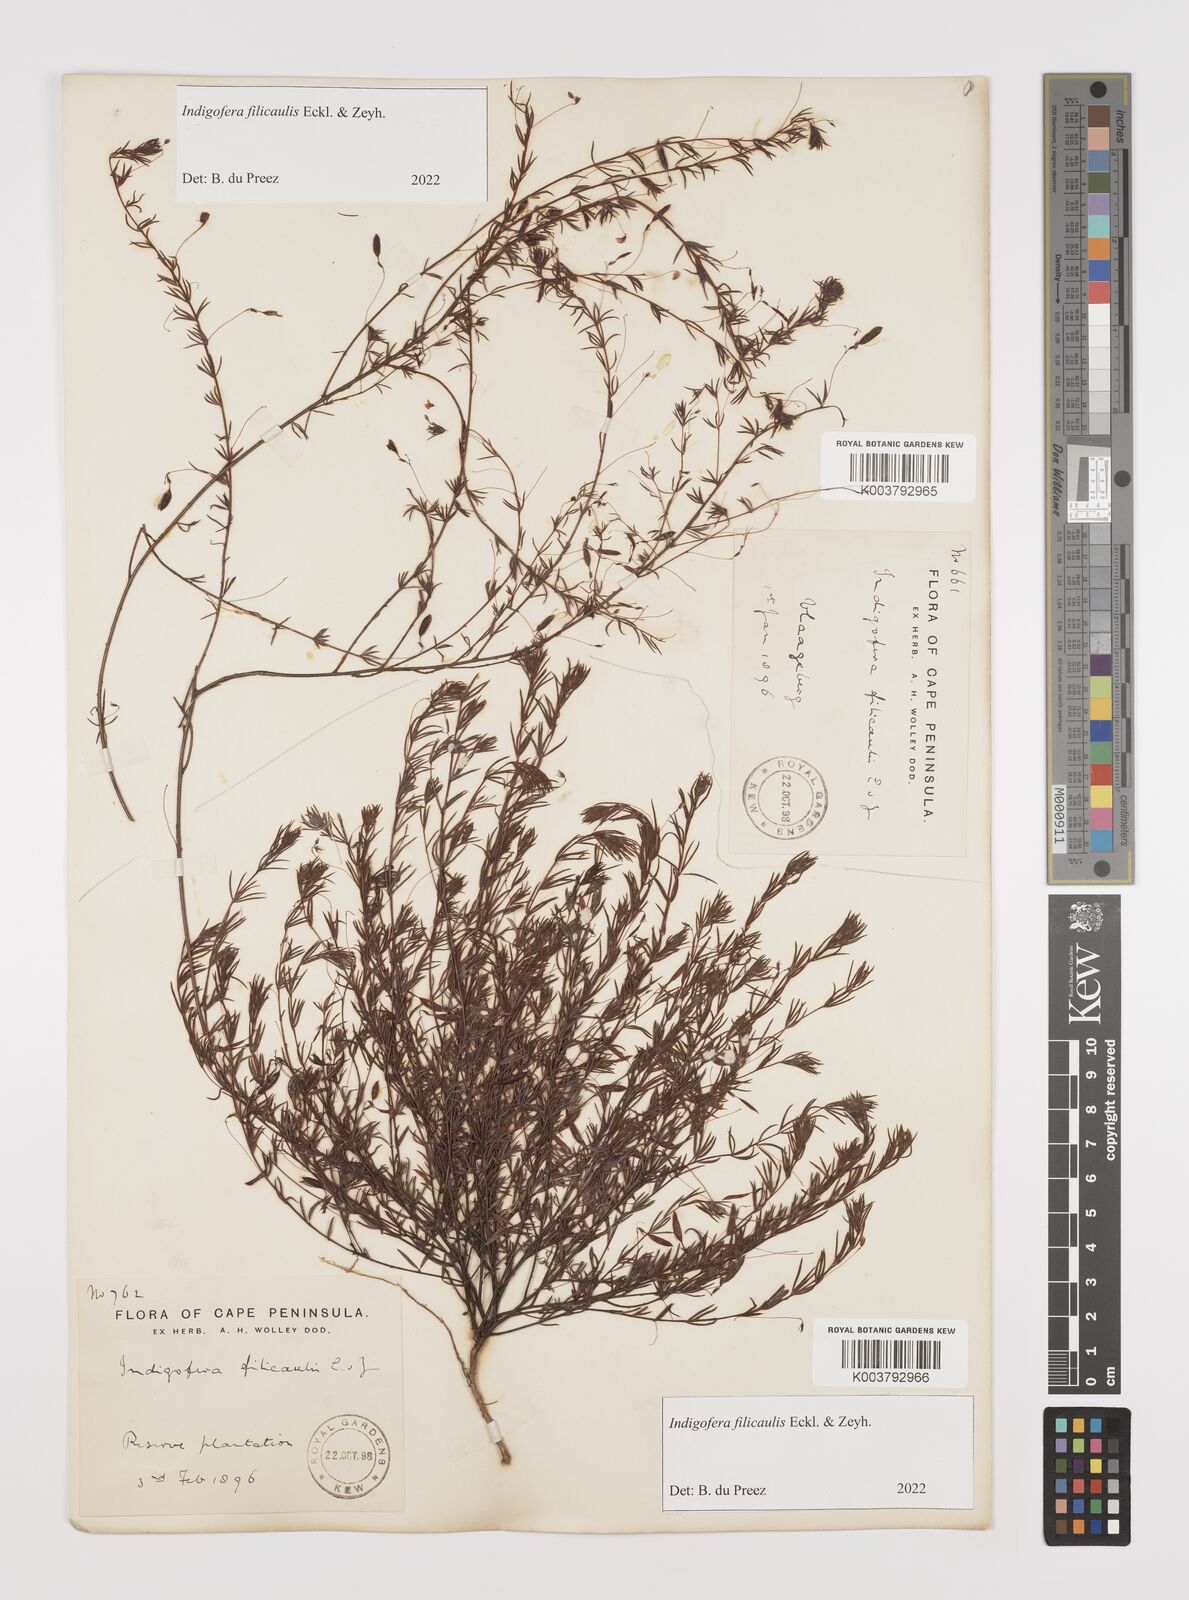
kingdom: Plantae
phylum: Tracheophyta
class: Magnoliopsida
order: Fabales
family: Fabaceae
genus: Indigofera
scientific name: Indigofera filicaulis
